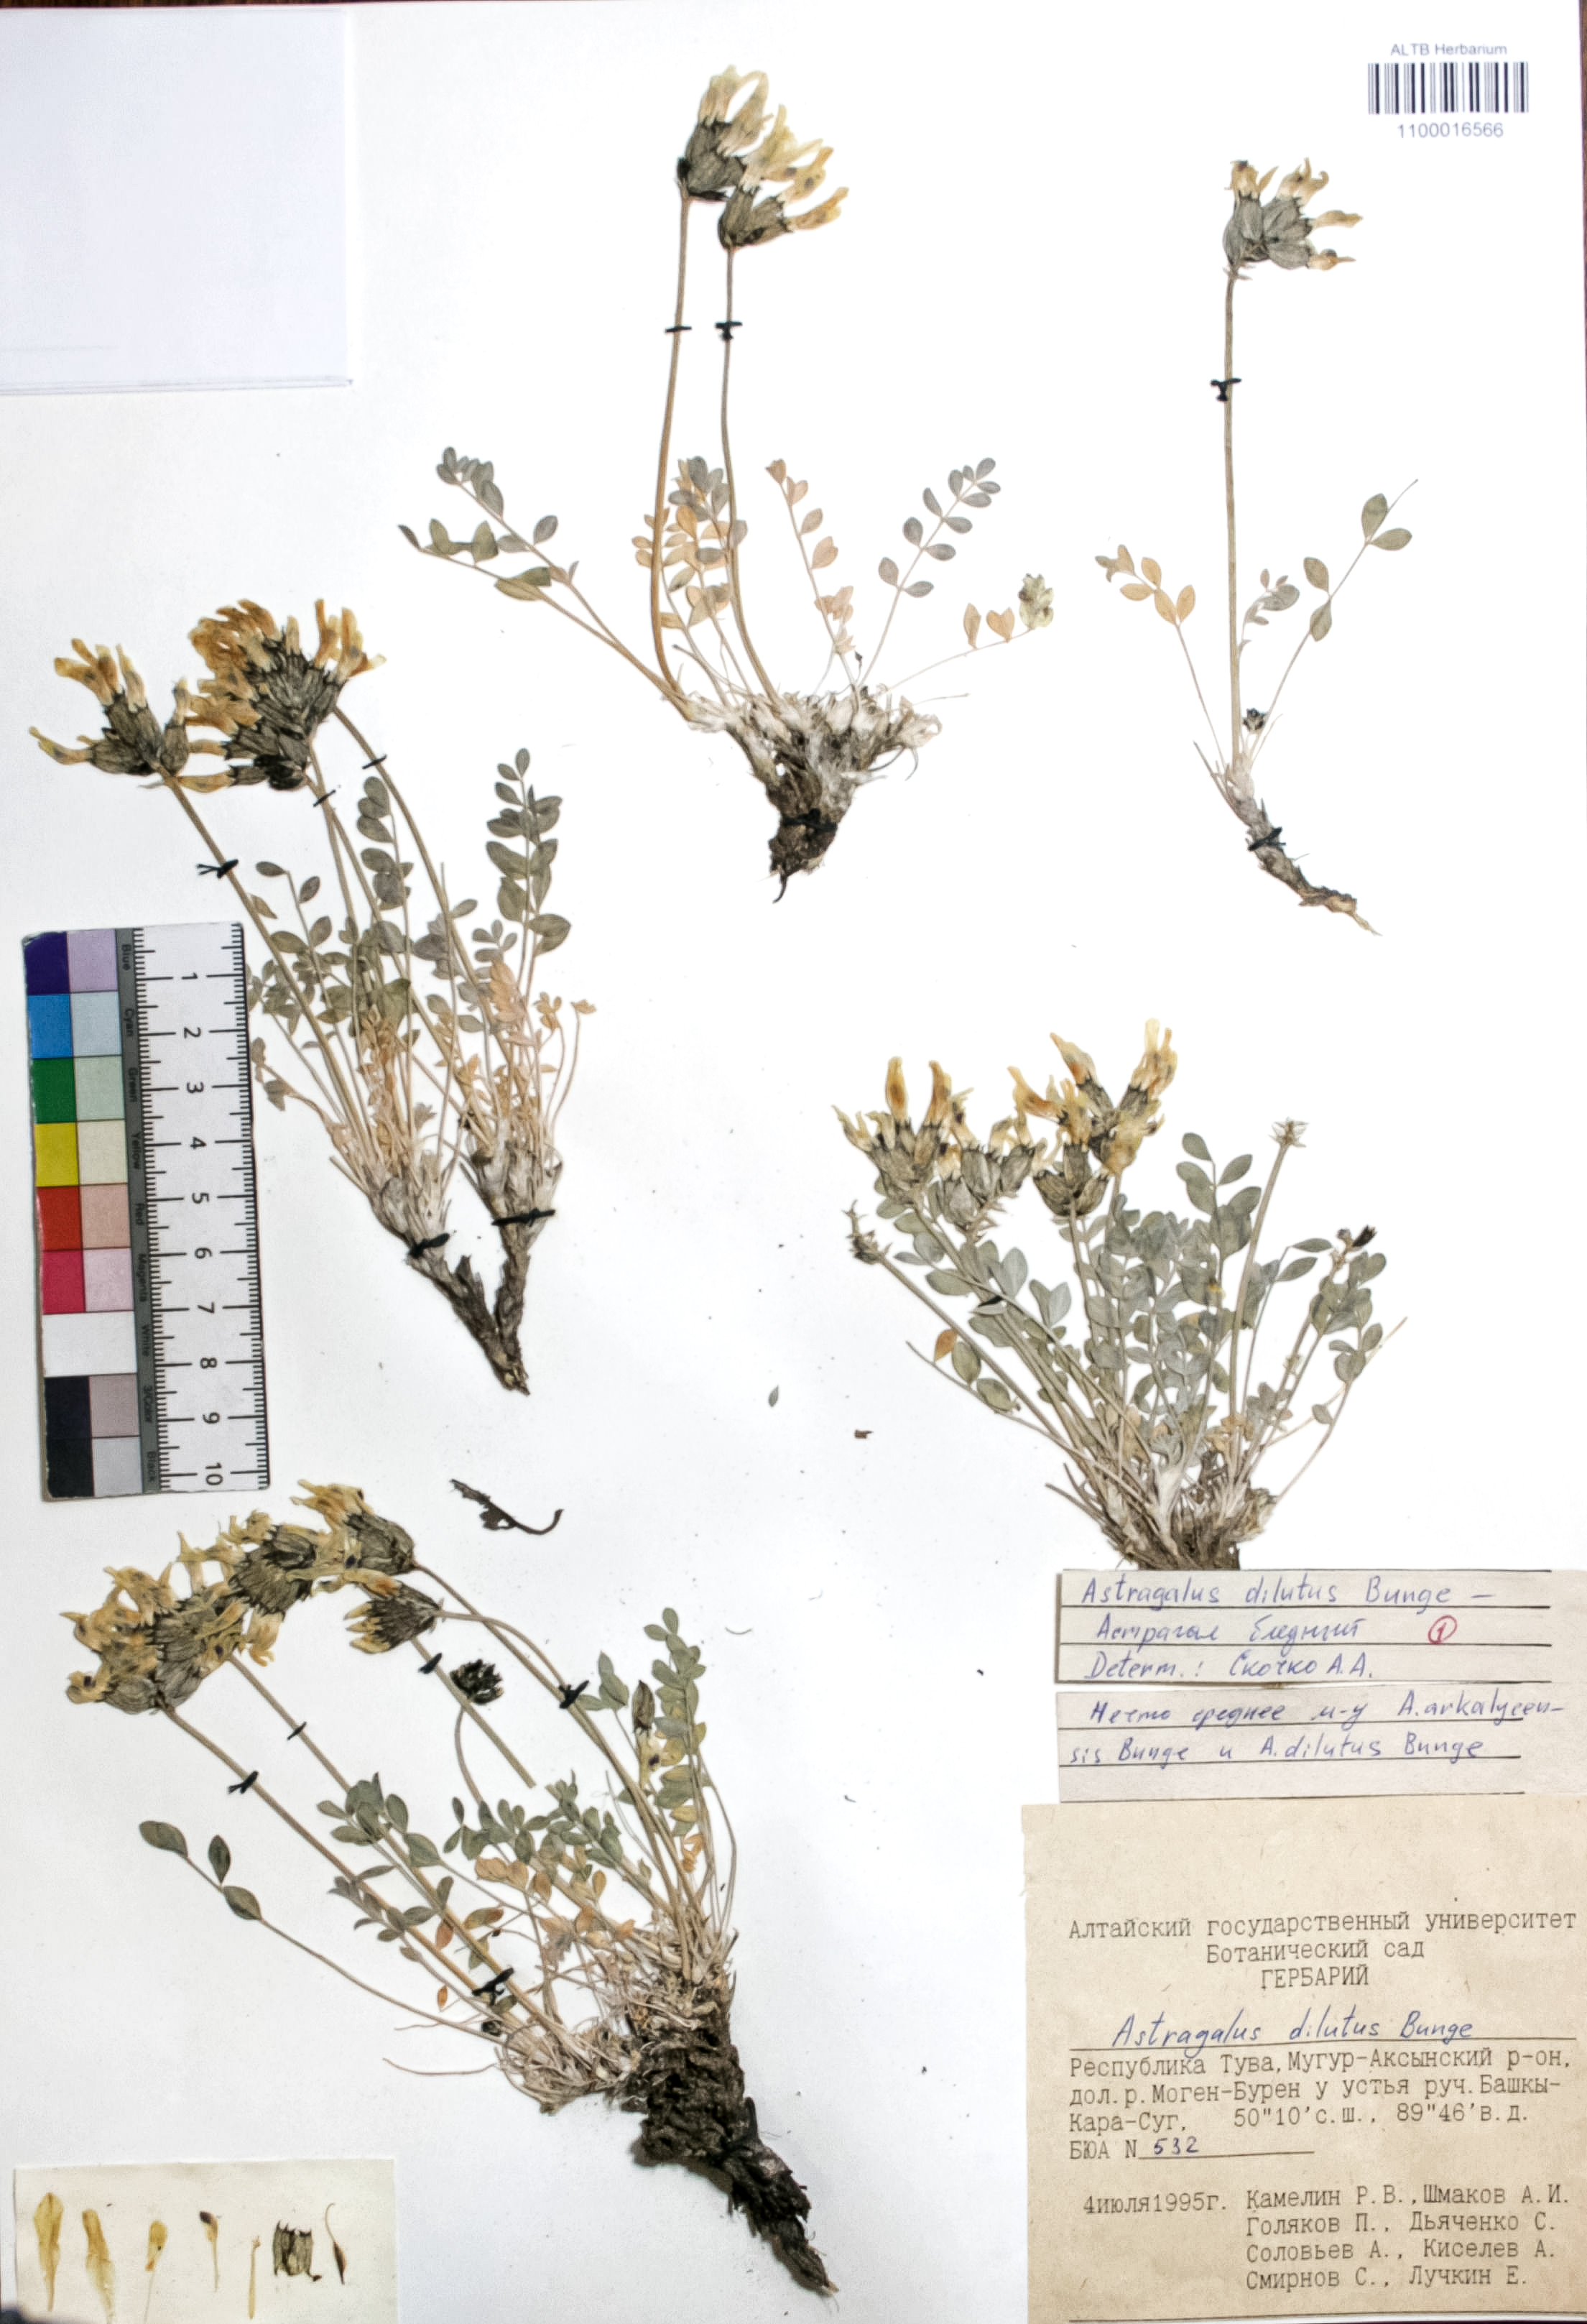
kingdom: Plantae
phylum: Tracheophyta
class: Magnoliopsida
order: Fabales
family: Fabaceae
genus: Astragalus
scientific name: Astragalus dilutus
